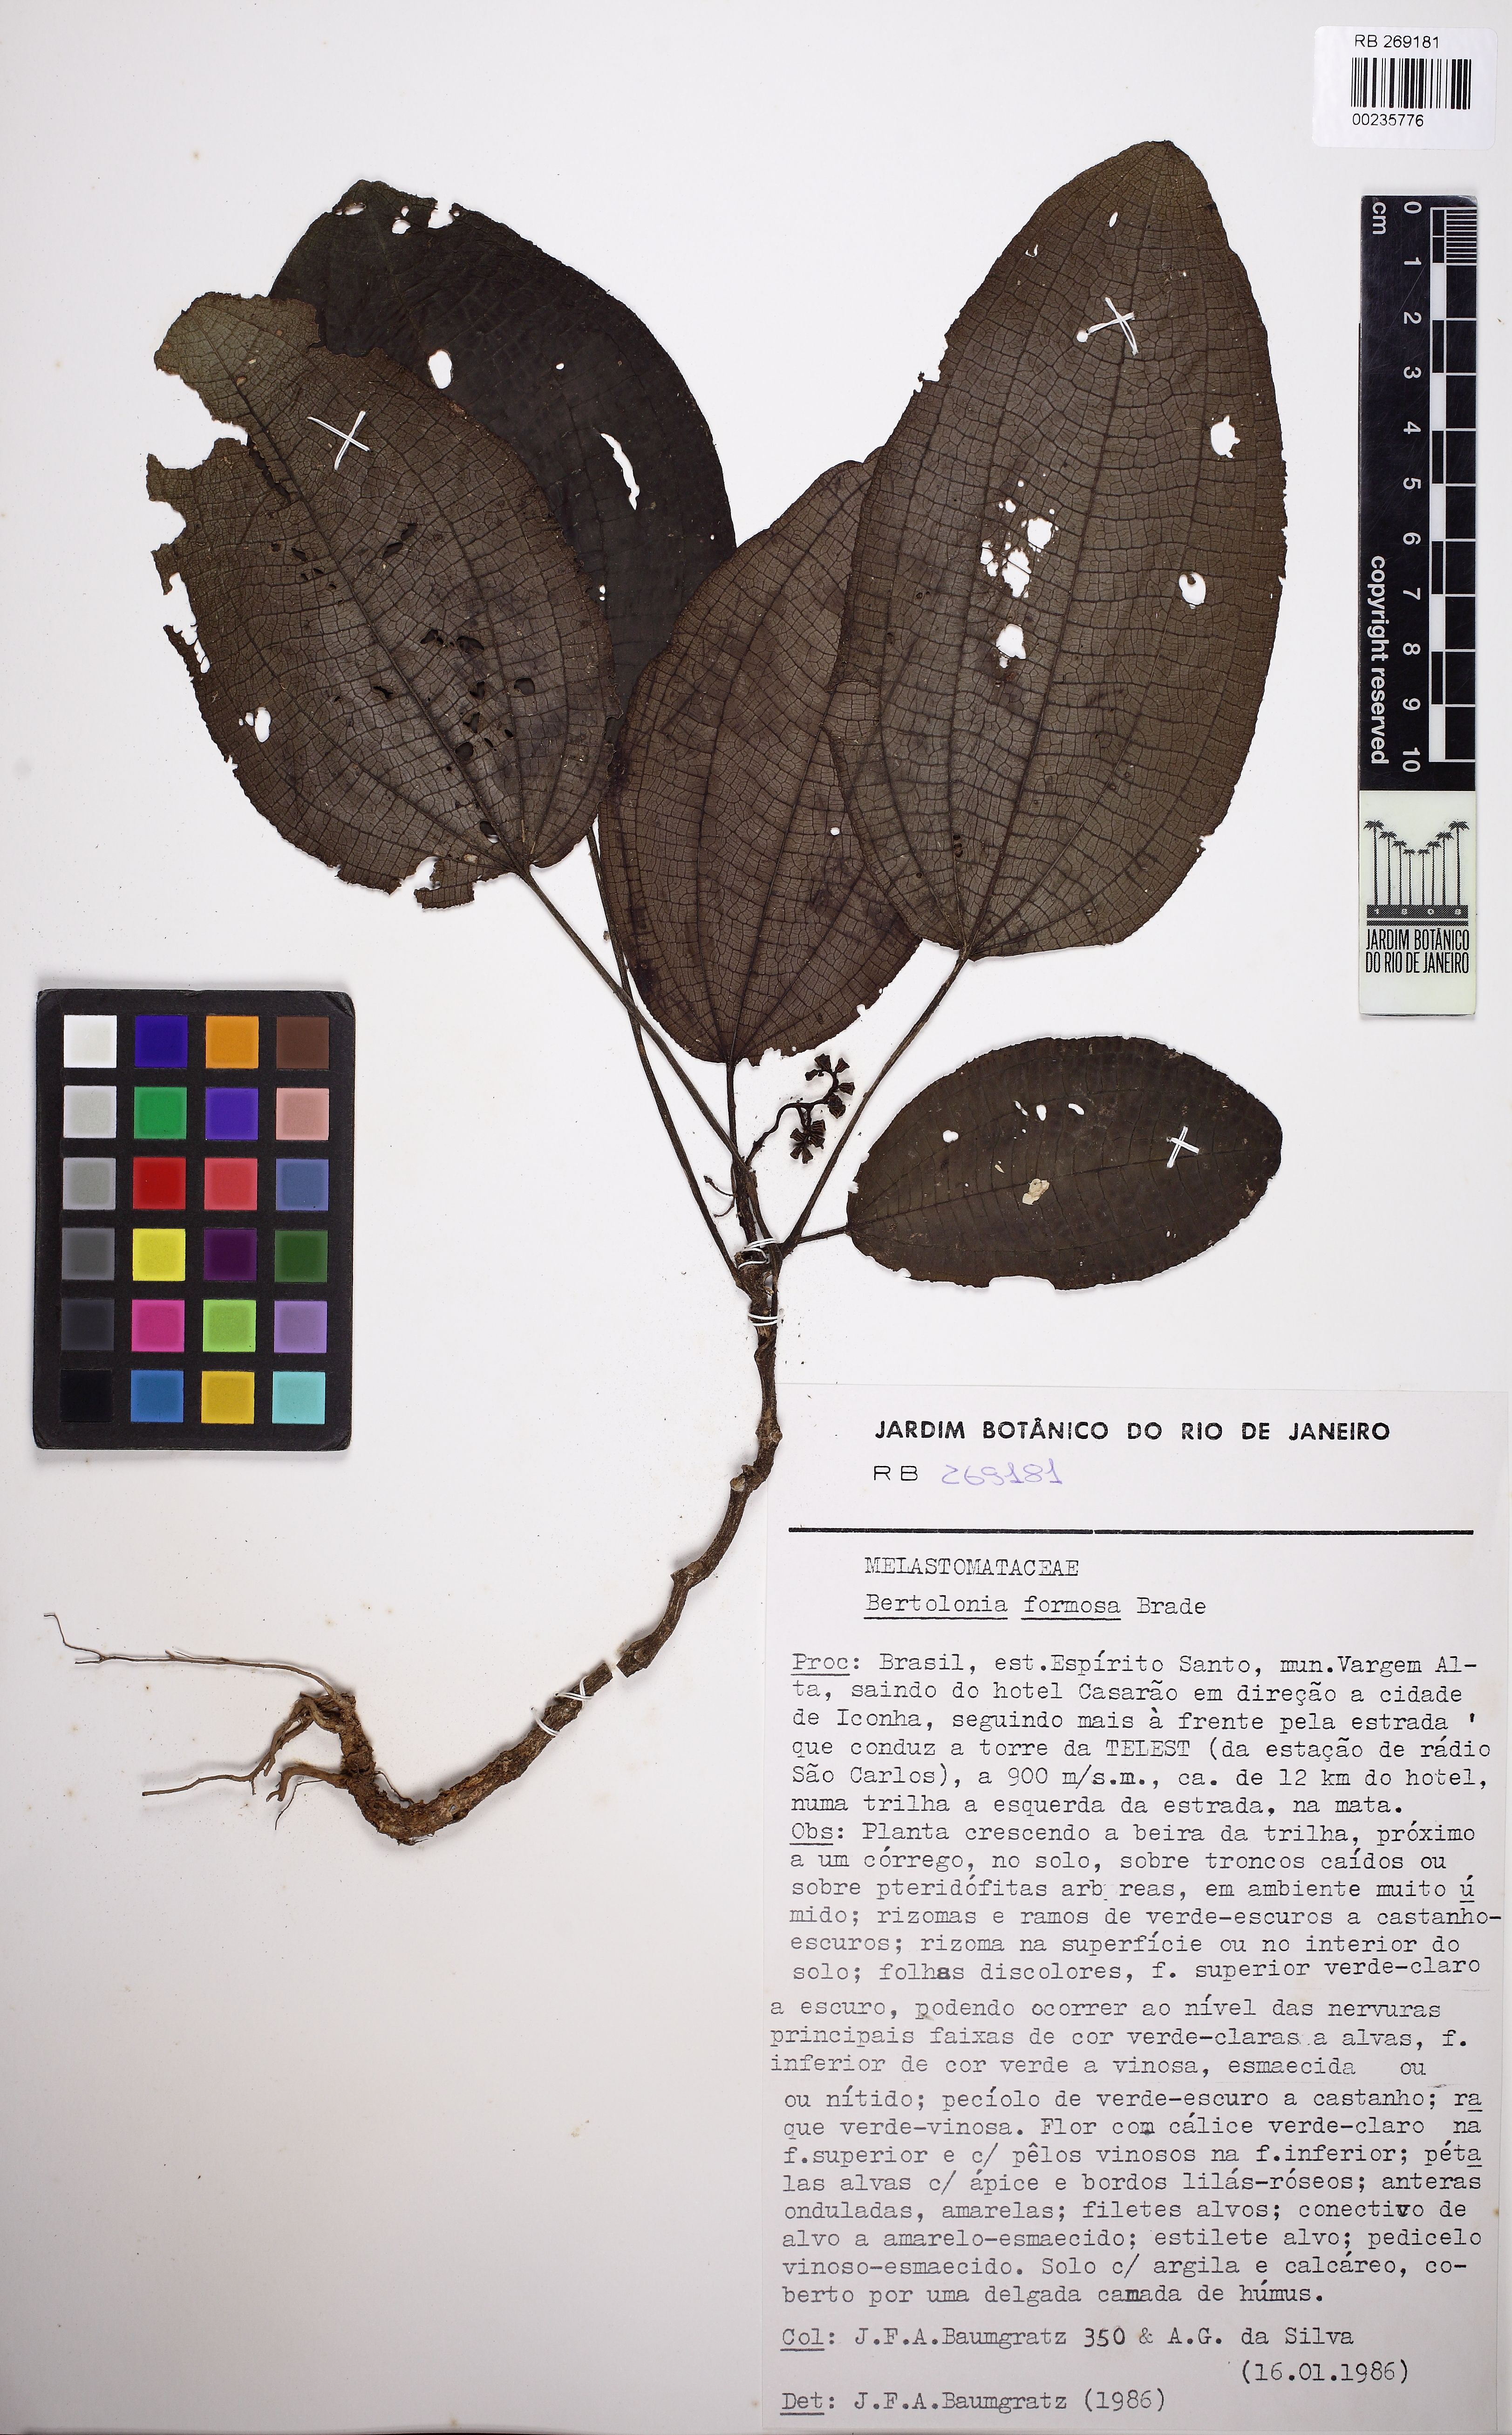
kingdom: Plantae
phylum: Tracheophyta
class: Magnoliopsida
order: Myrtales
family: Melastomataceae
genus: Bertolonia
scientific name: Bertolonia formosa
